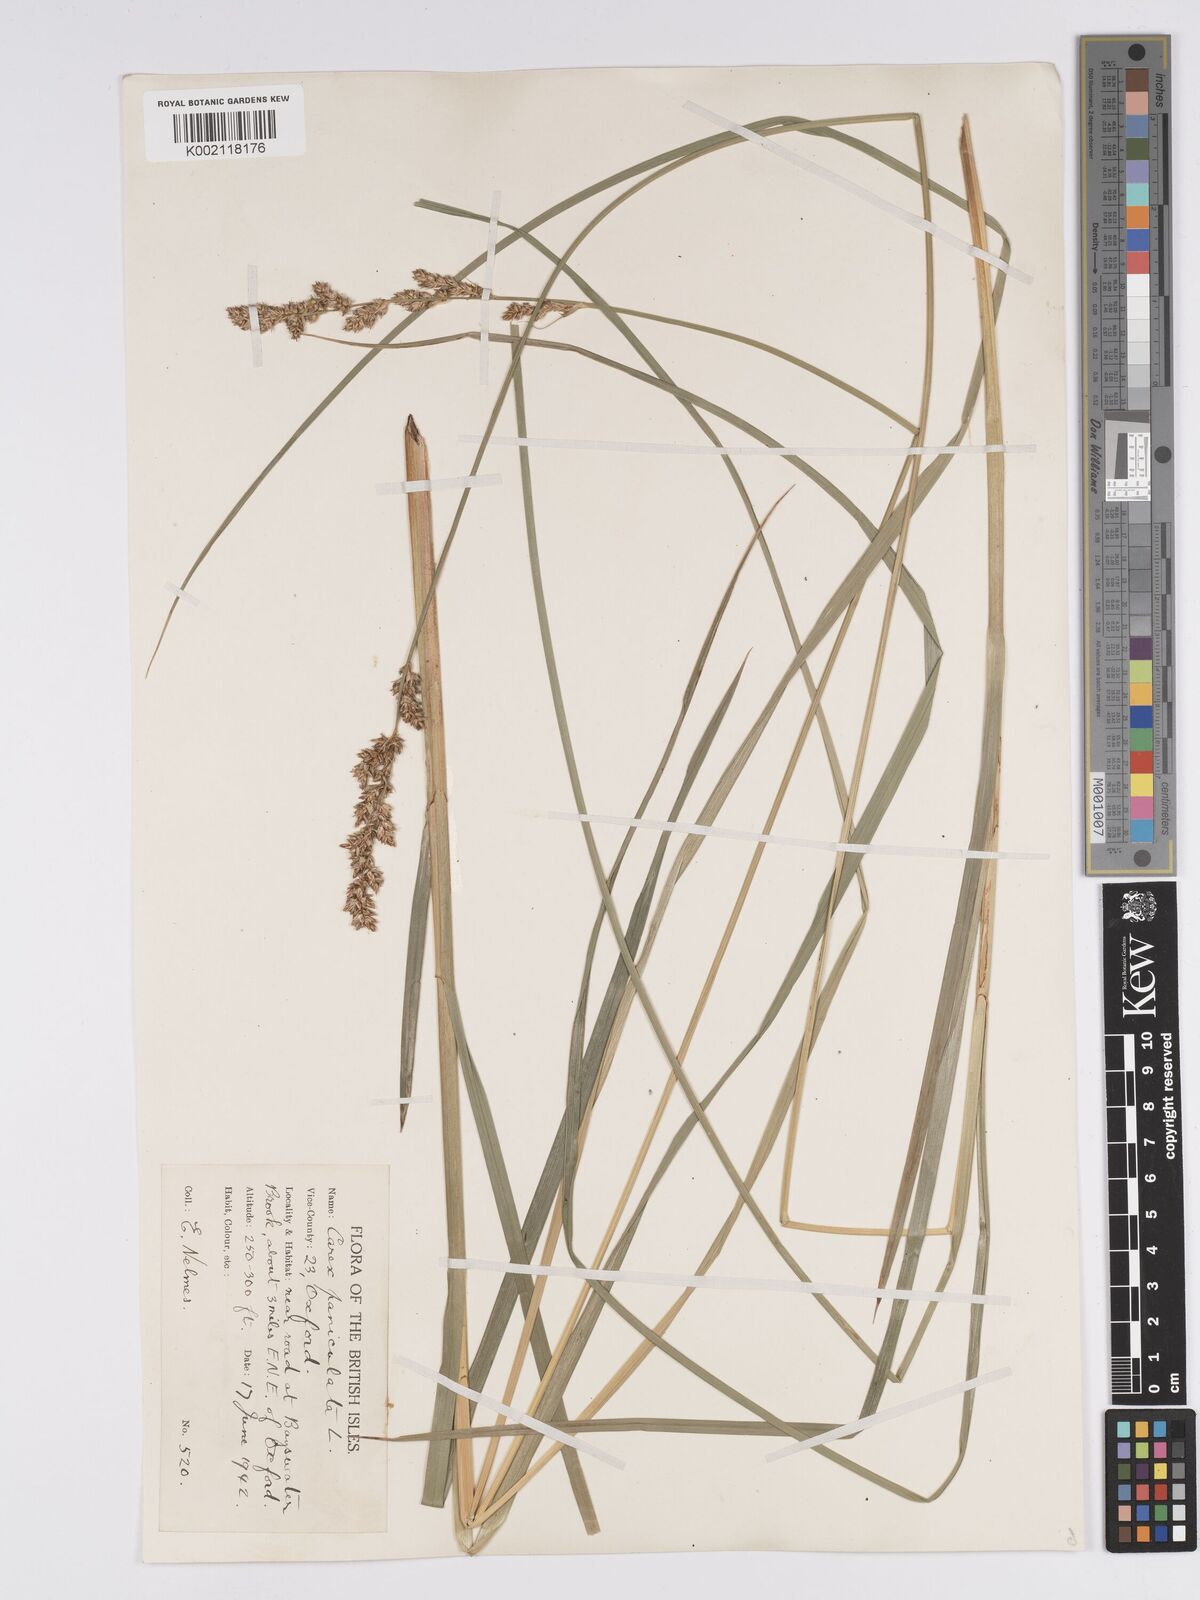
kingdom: Plantae
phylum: Tracheophyta
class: Liliopsida
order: Poales
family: Cyperaceae
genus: Carex
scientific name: Carex paniculata
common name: Greater tussock-sedge
